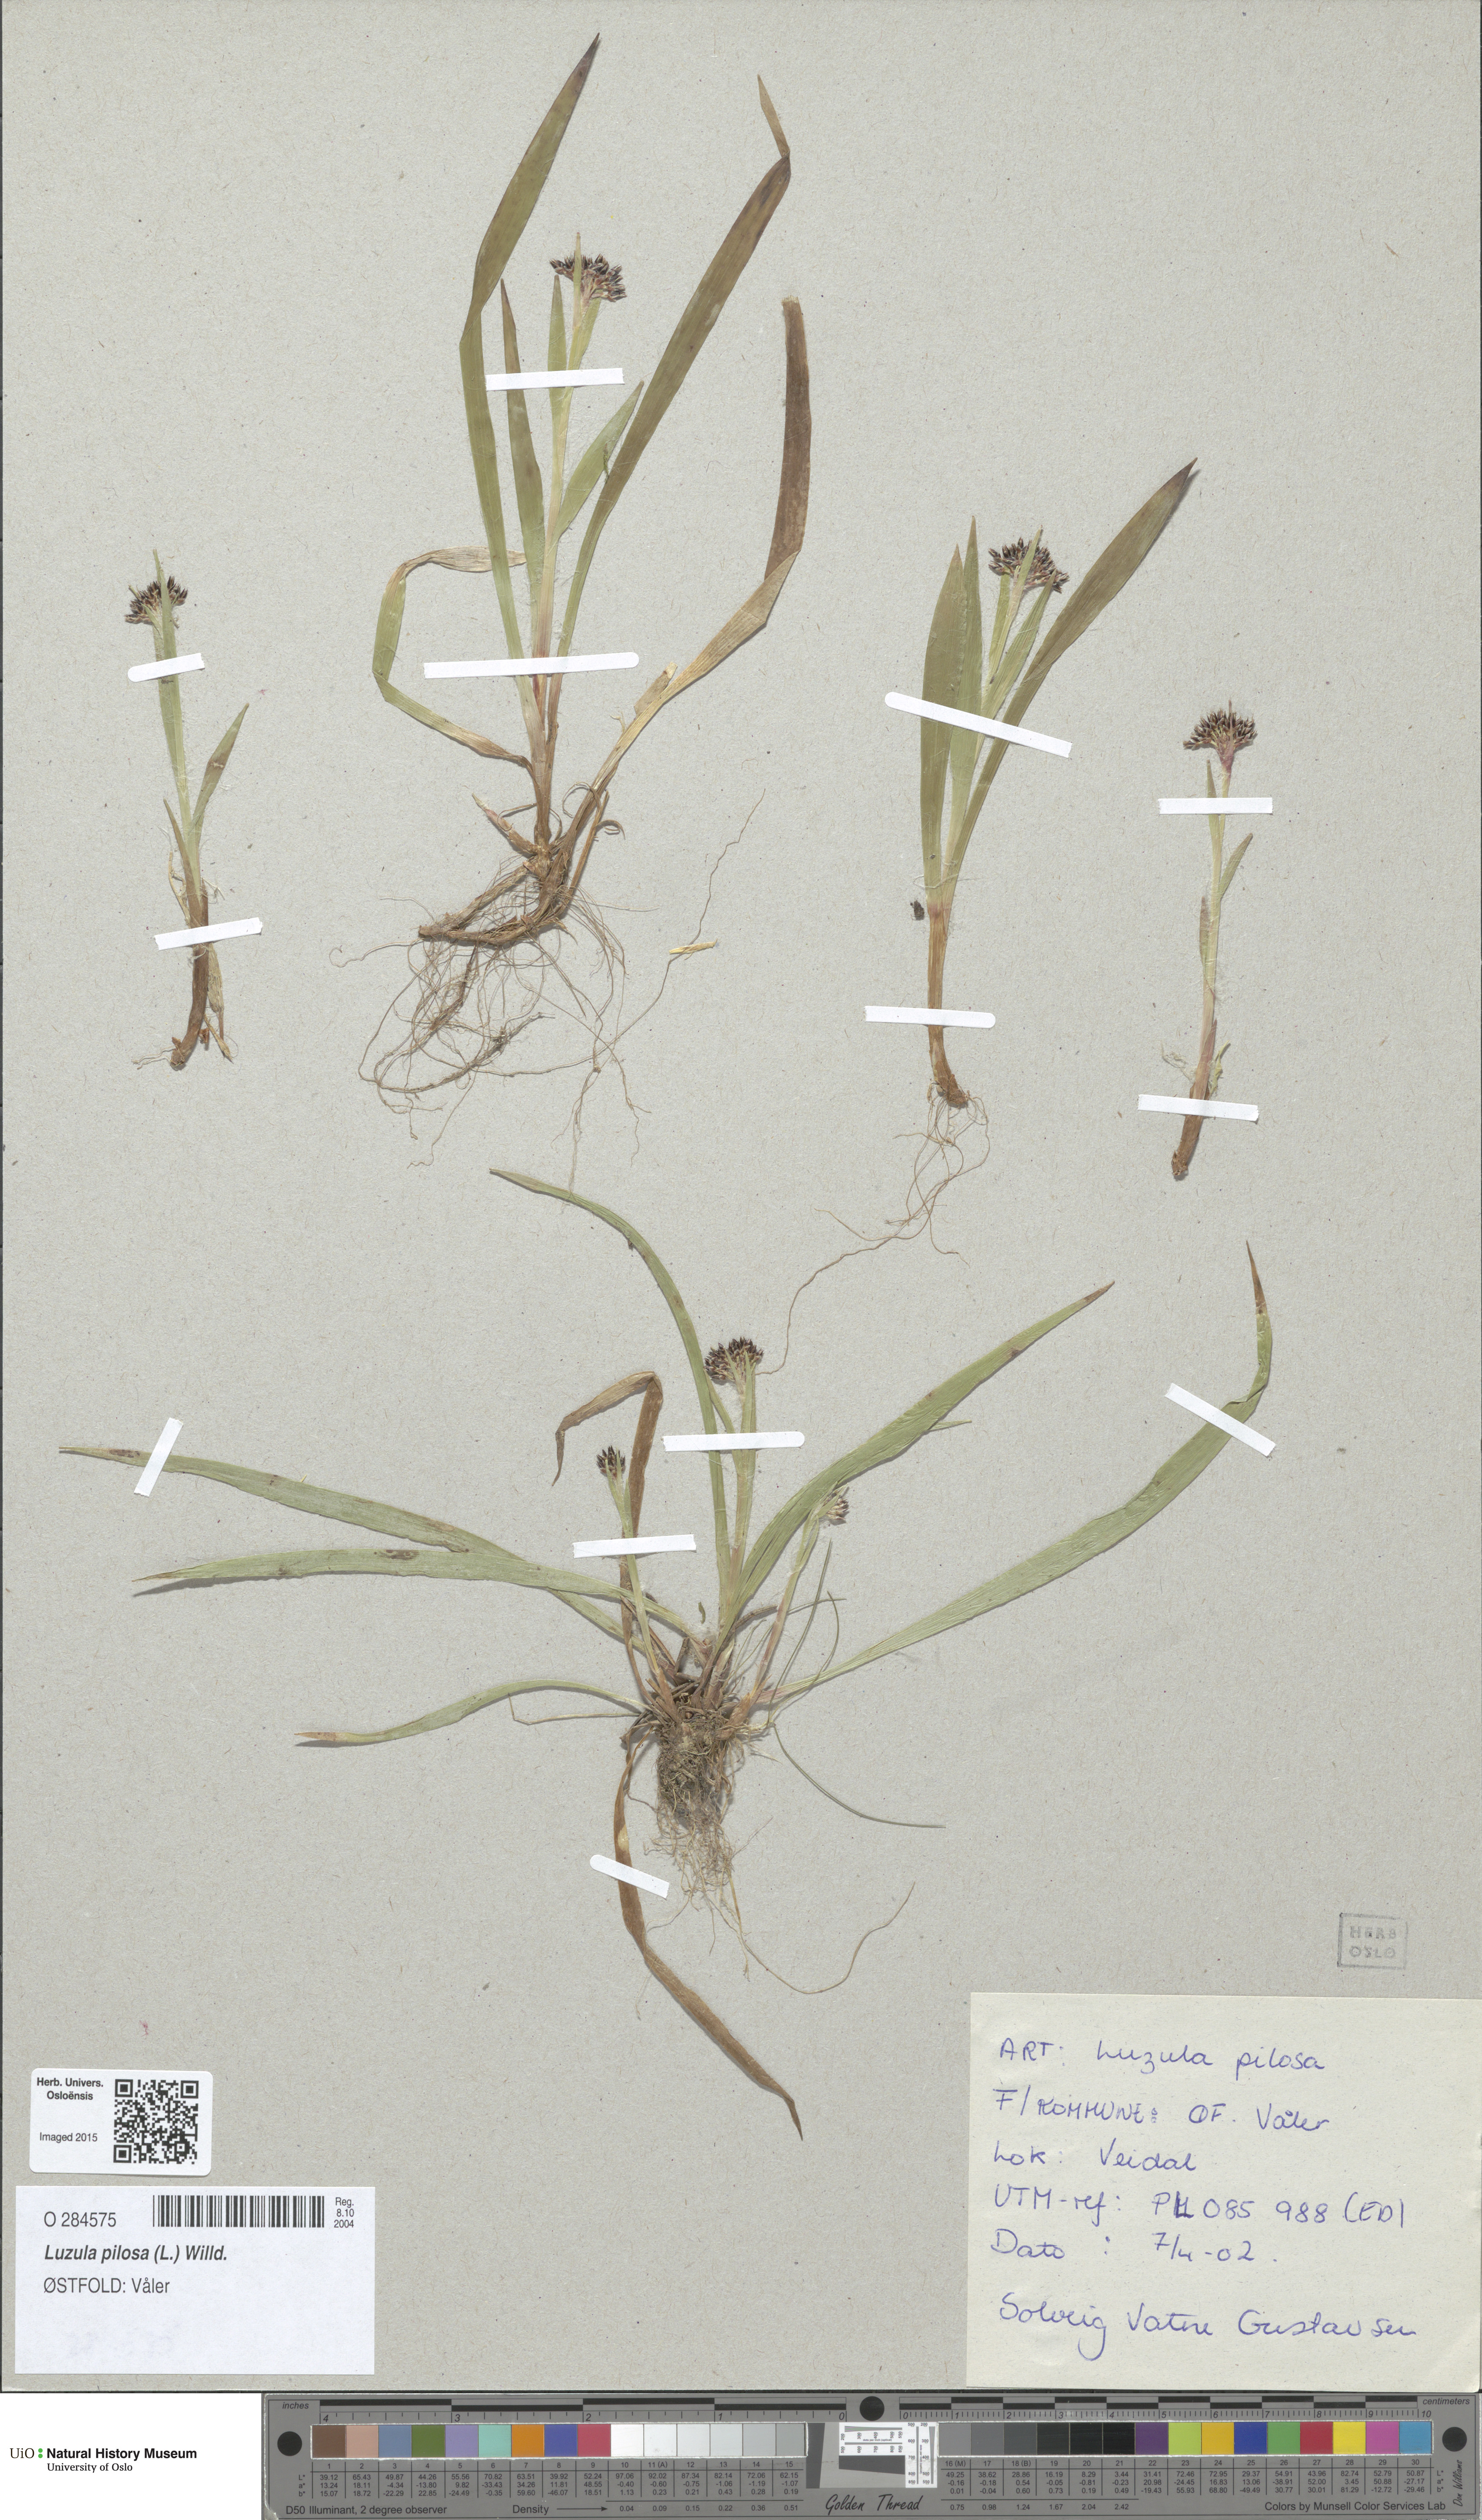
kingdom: Plantae
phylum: Tracheophyta
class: Liliopsida
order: Poales
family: Juncaceae
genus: Luzula
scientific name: Luzula pilosa
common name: Hairy wood-rush
